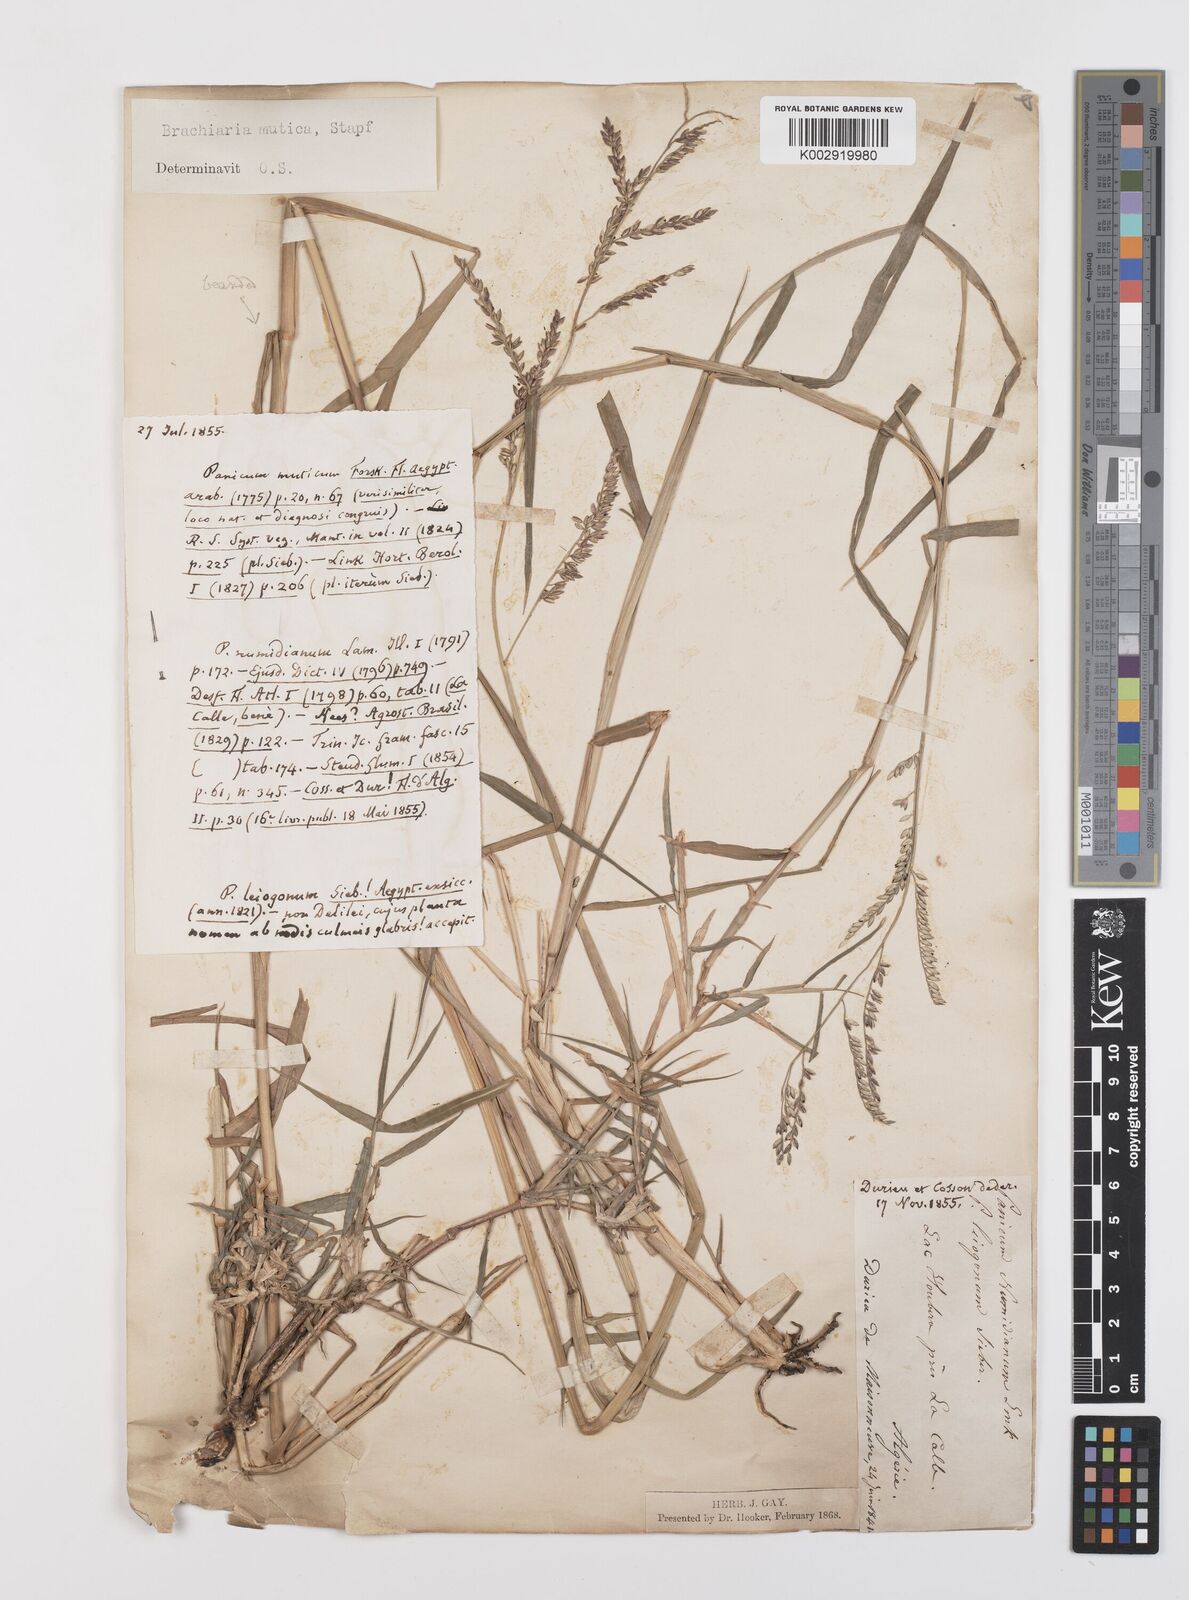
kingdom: Plantae
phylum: Tracheophyta
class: Liliopsida
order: Poales
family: Poaceae
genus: Urochloa
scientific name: Urochloa mutica
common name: Para grass
